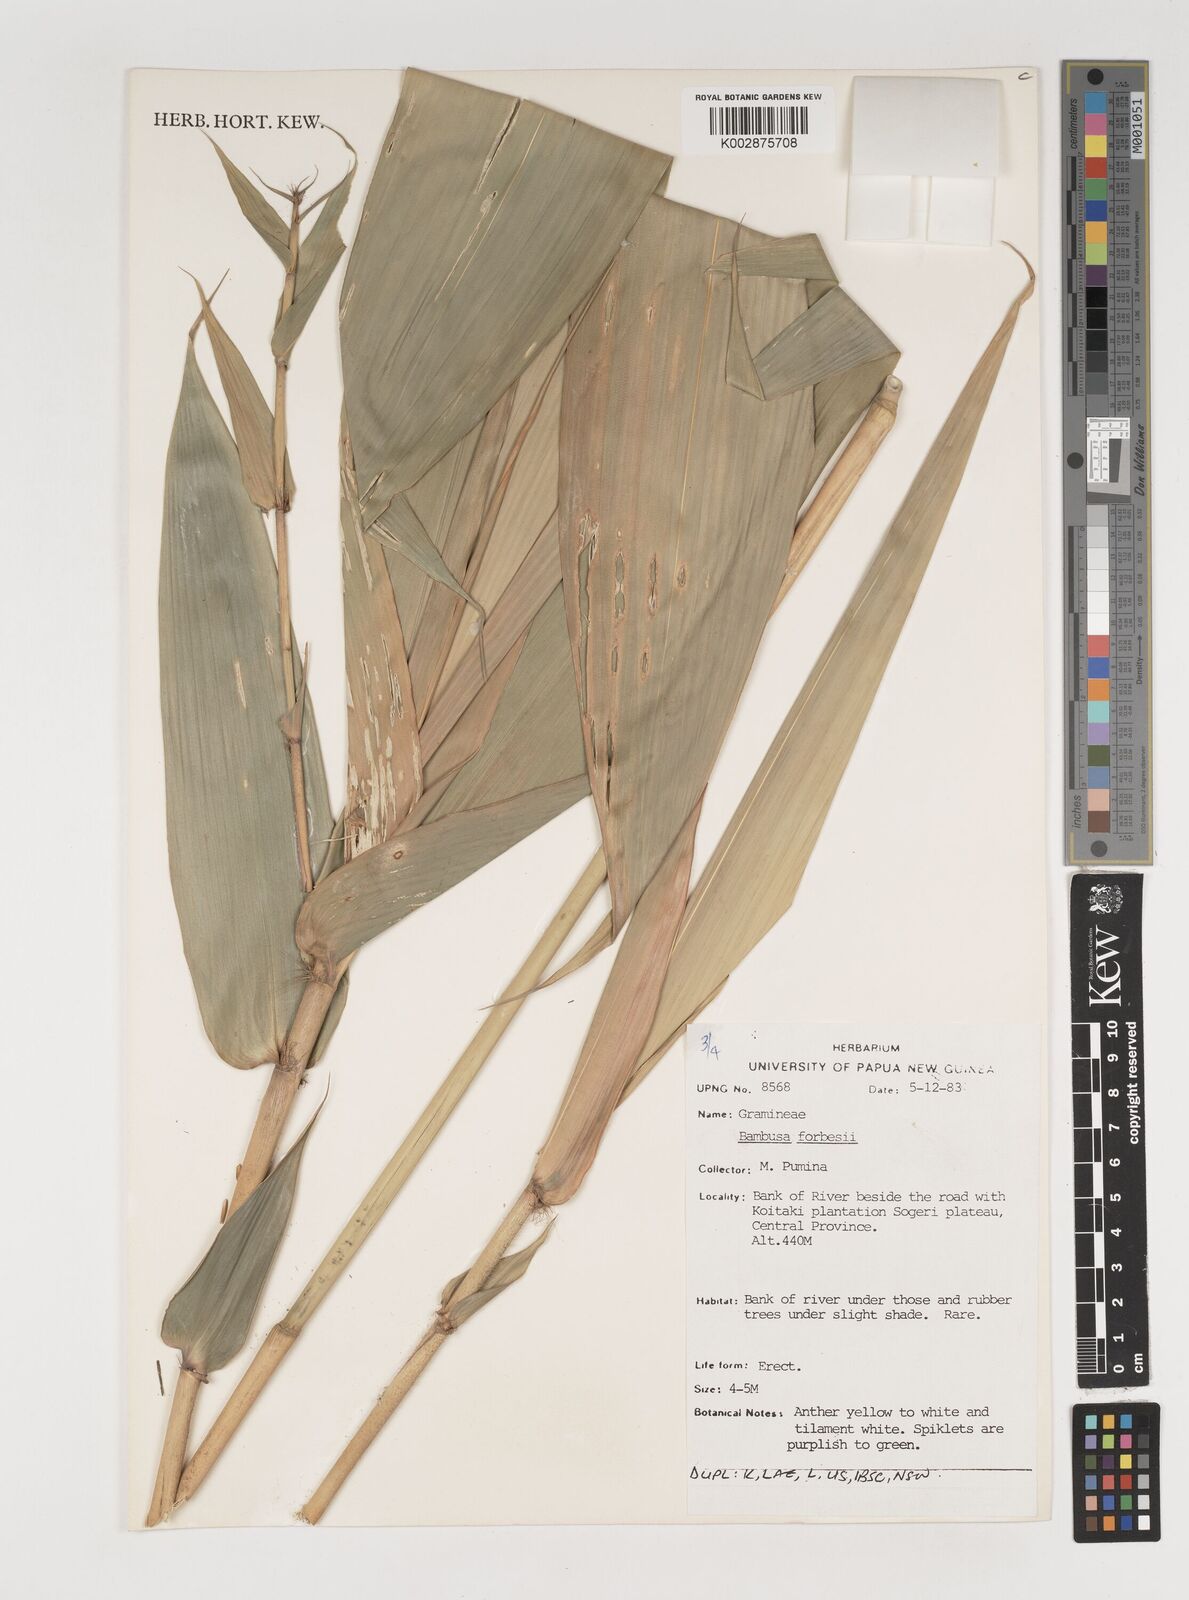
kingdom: Plantae
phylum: Tracheophyta
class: Liliopsida
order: Poales
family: Poaceae
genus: Neololeba
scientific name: Neololeba atra
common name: Cape bamboo
